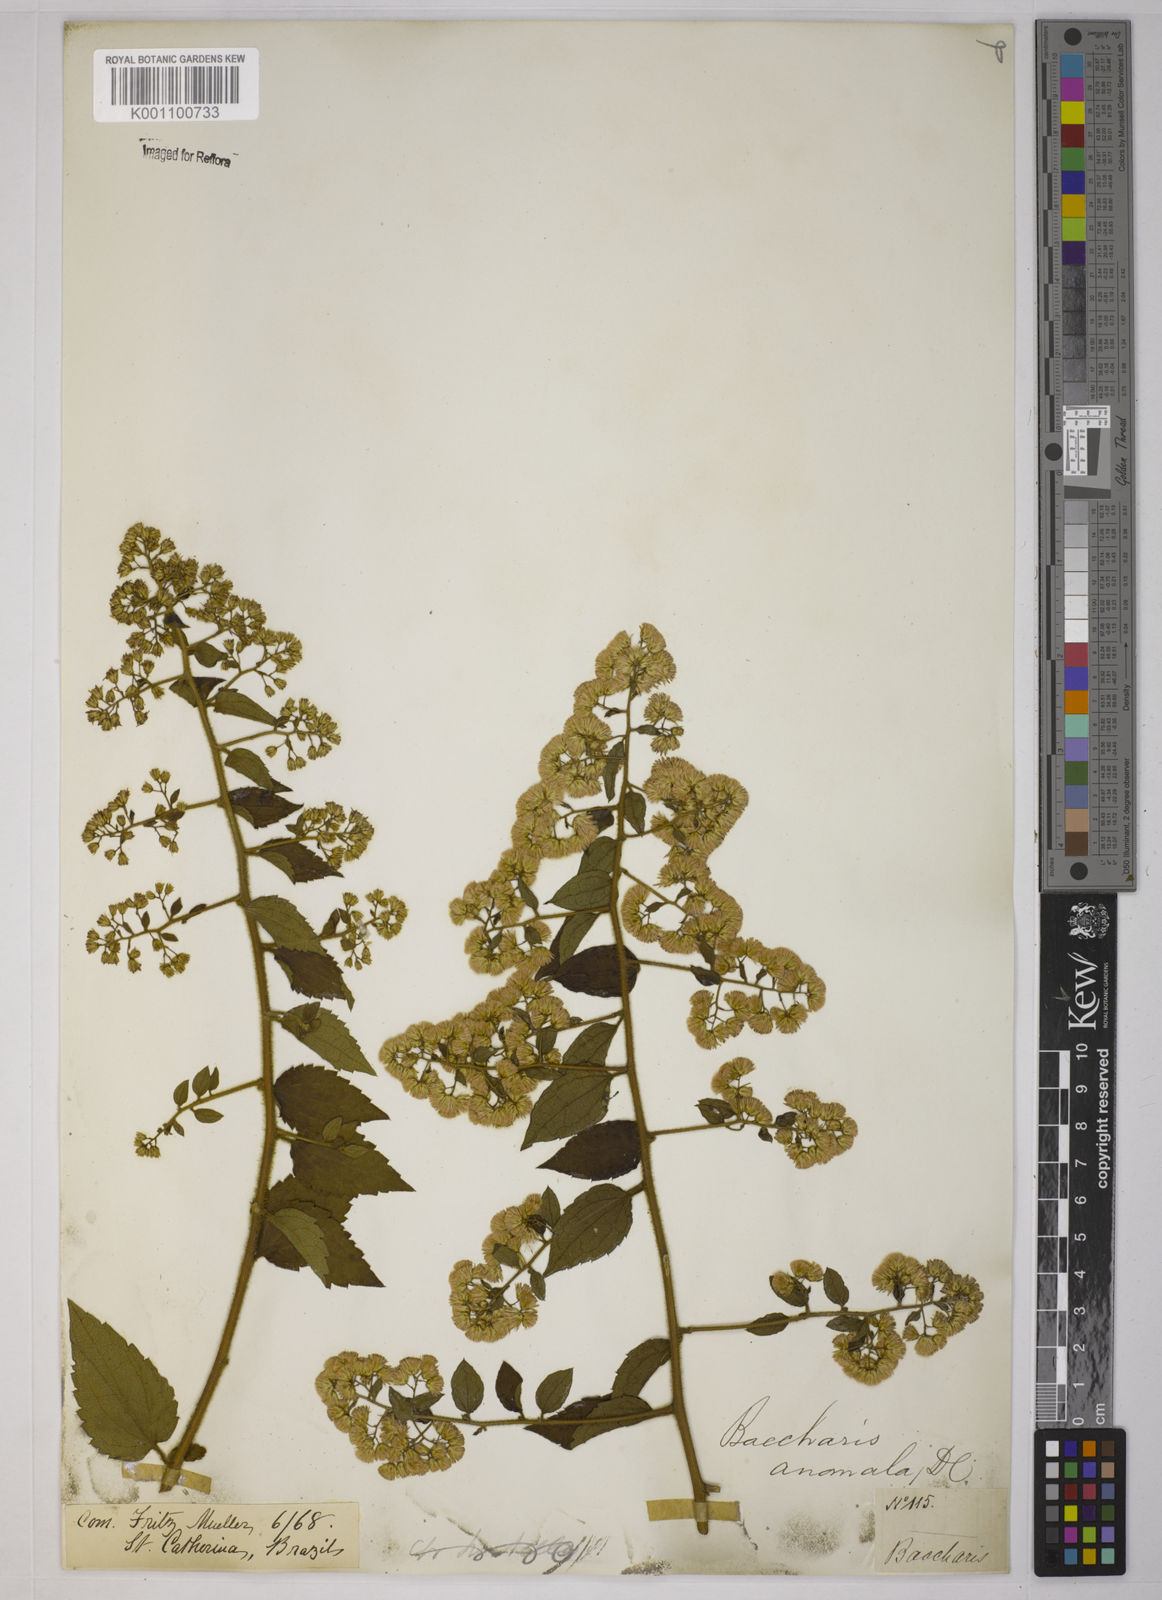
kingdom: Plantae
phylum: Tracheophyta
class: Magnoliopsida
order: Asterales
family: Asteraceae
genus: Baccharis
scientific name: Baccharis anomala
